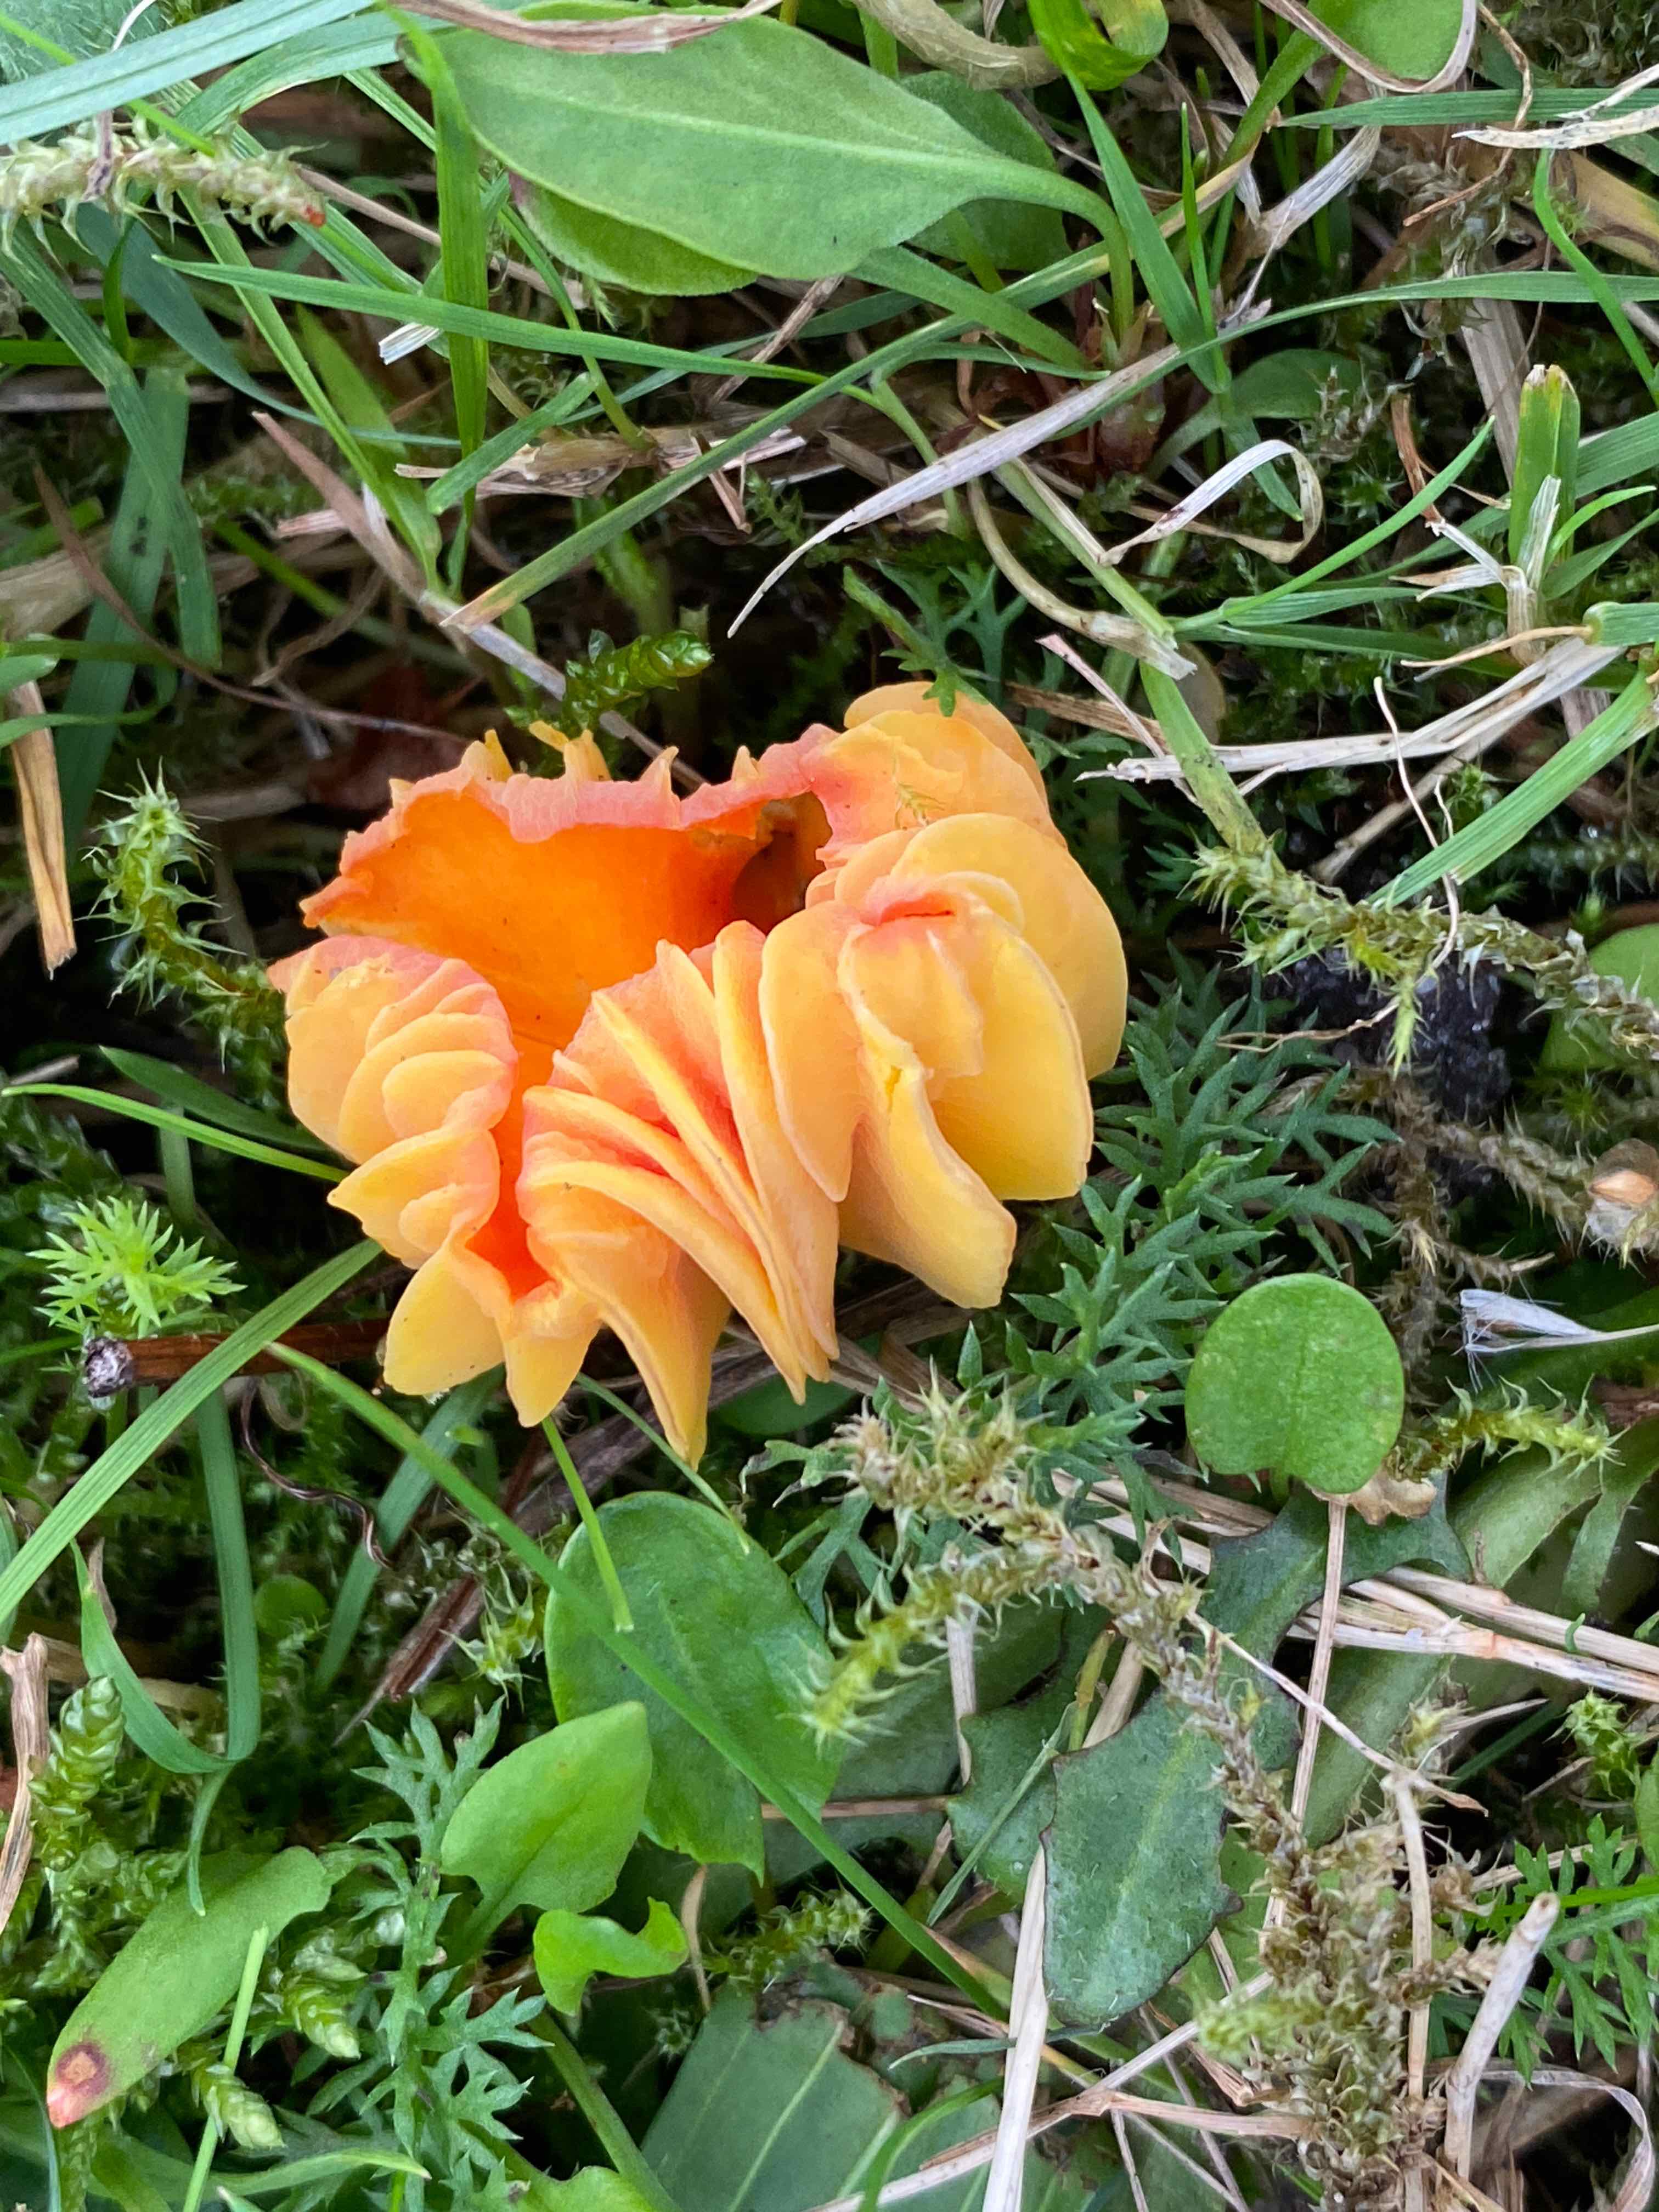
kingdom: Fungi
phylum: Basidiomycota
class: Agaricomycetes
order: Agaricales
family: Hygrophoraceae
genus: Hygrocybe
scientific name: Hygrocybe
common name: vokshat
